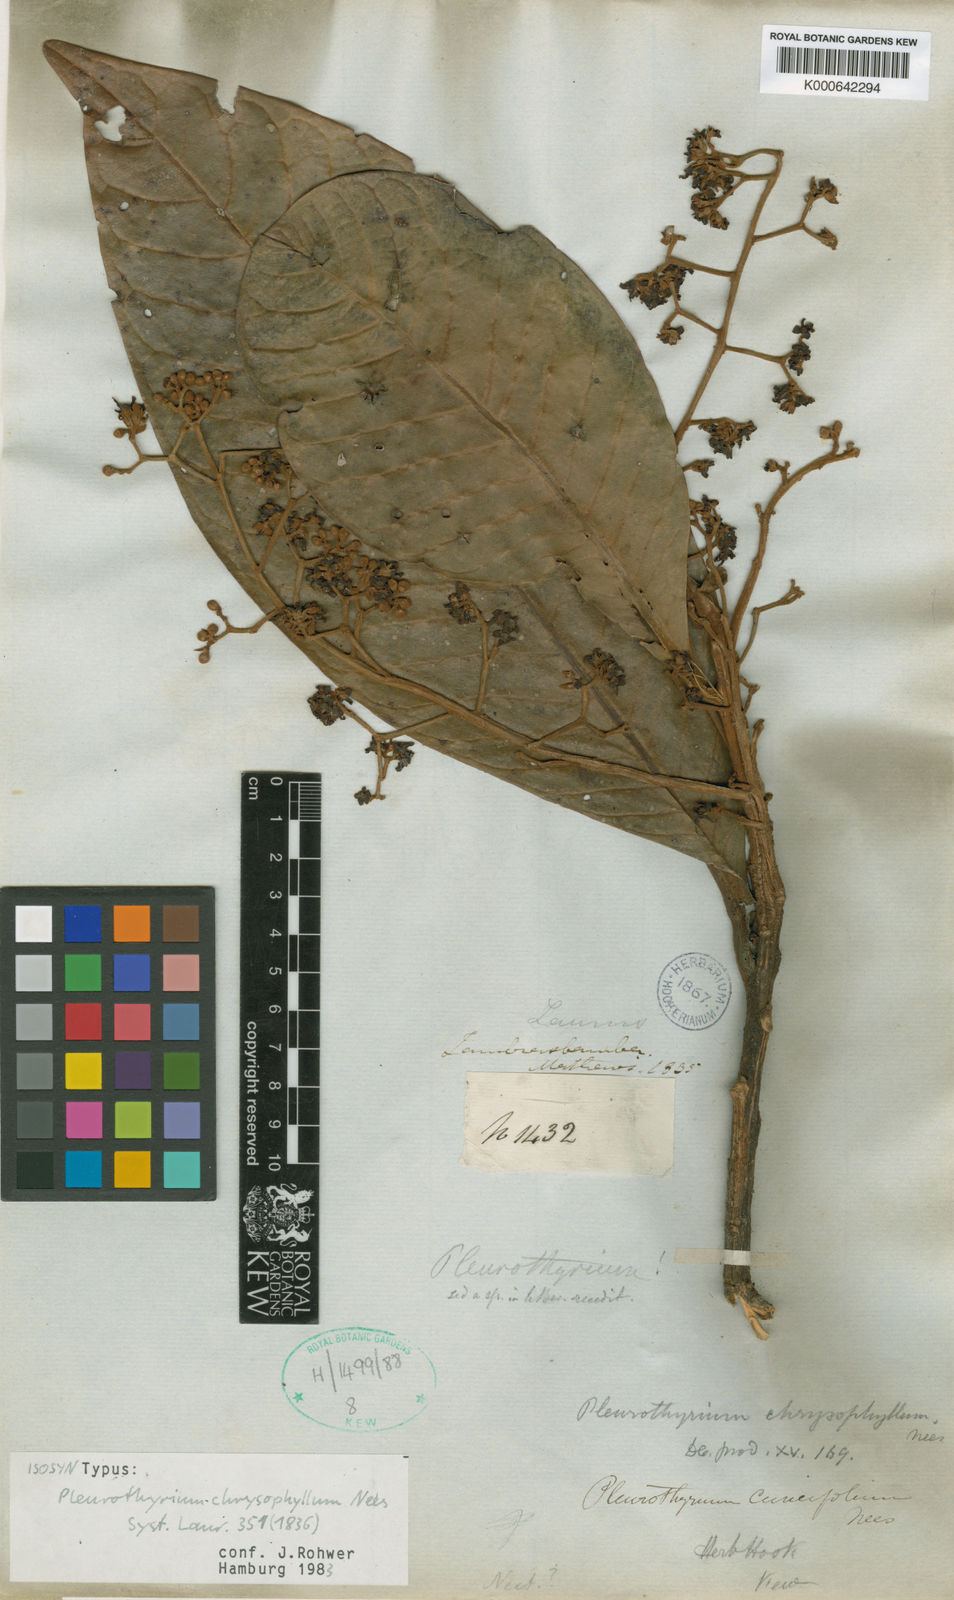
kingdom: Plantae
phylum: Tracheophyta
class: Magnoliopsida
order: Laurales
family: Lauraceae
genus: Pleurothyrium
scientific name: Pleurothyrium cuneifolium
